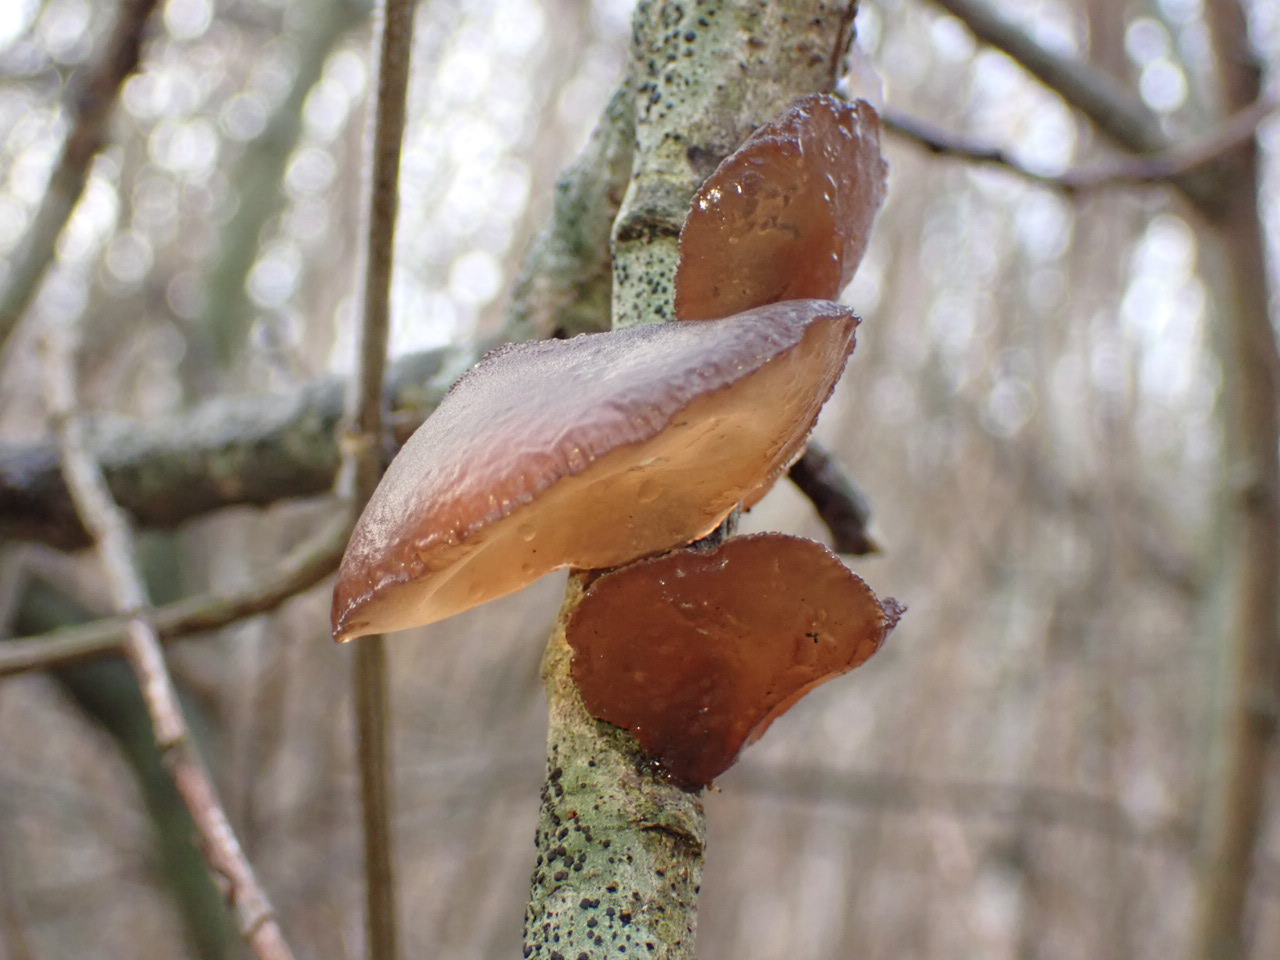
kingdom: Fungi
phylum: Basidiomycota
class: Agaricomycetes
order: Auriculariales
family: Auriculariaceae
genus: Exidia
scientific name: Exidia recisa
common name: pile-bævretop
